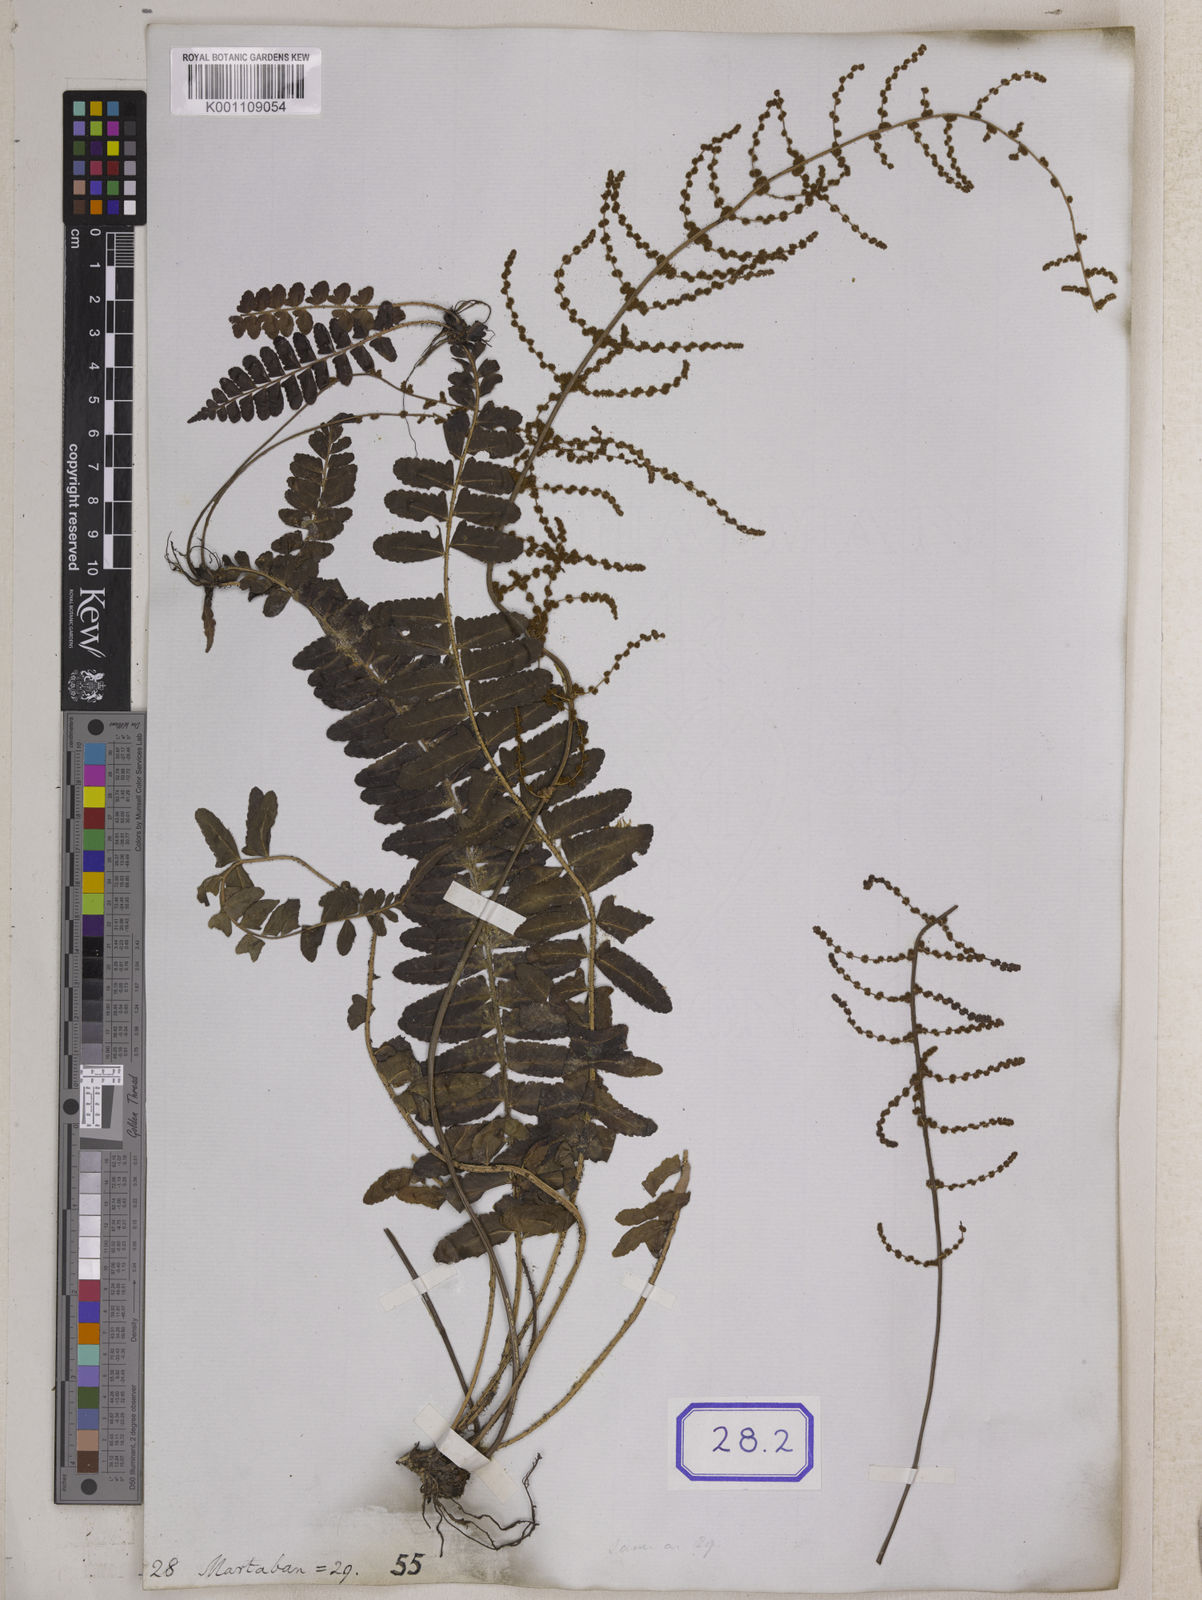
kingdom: Plantae
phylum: Tracheophyta
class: Polypodiopsida
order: Polypodiales
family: Pteridaceae
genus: Acrostichum
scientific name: Acrostichum
